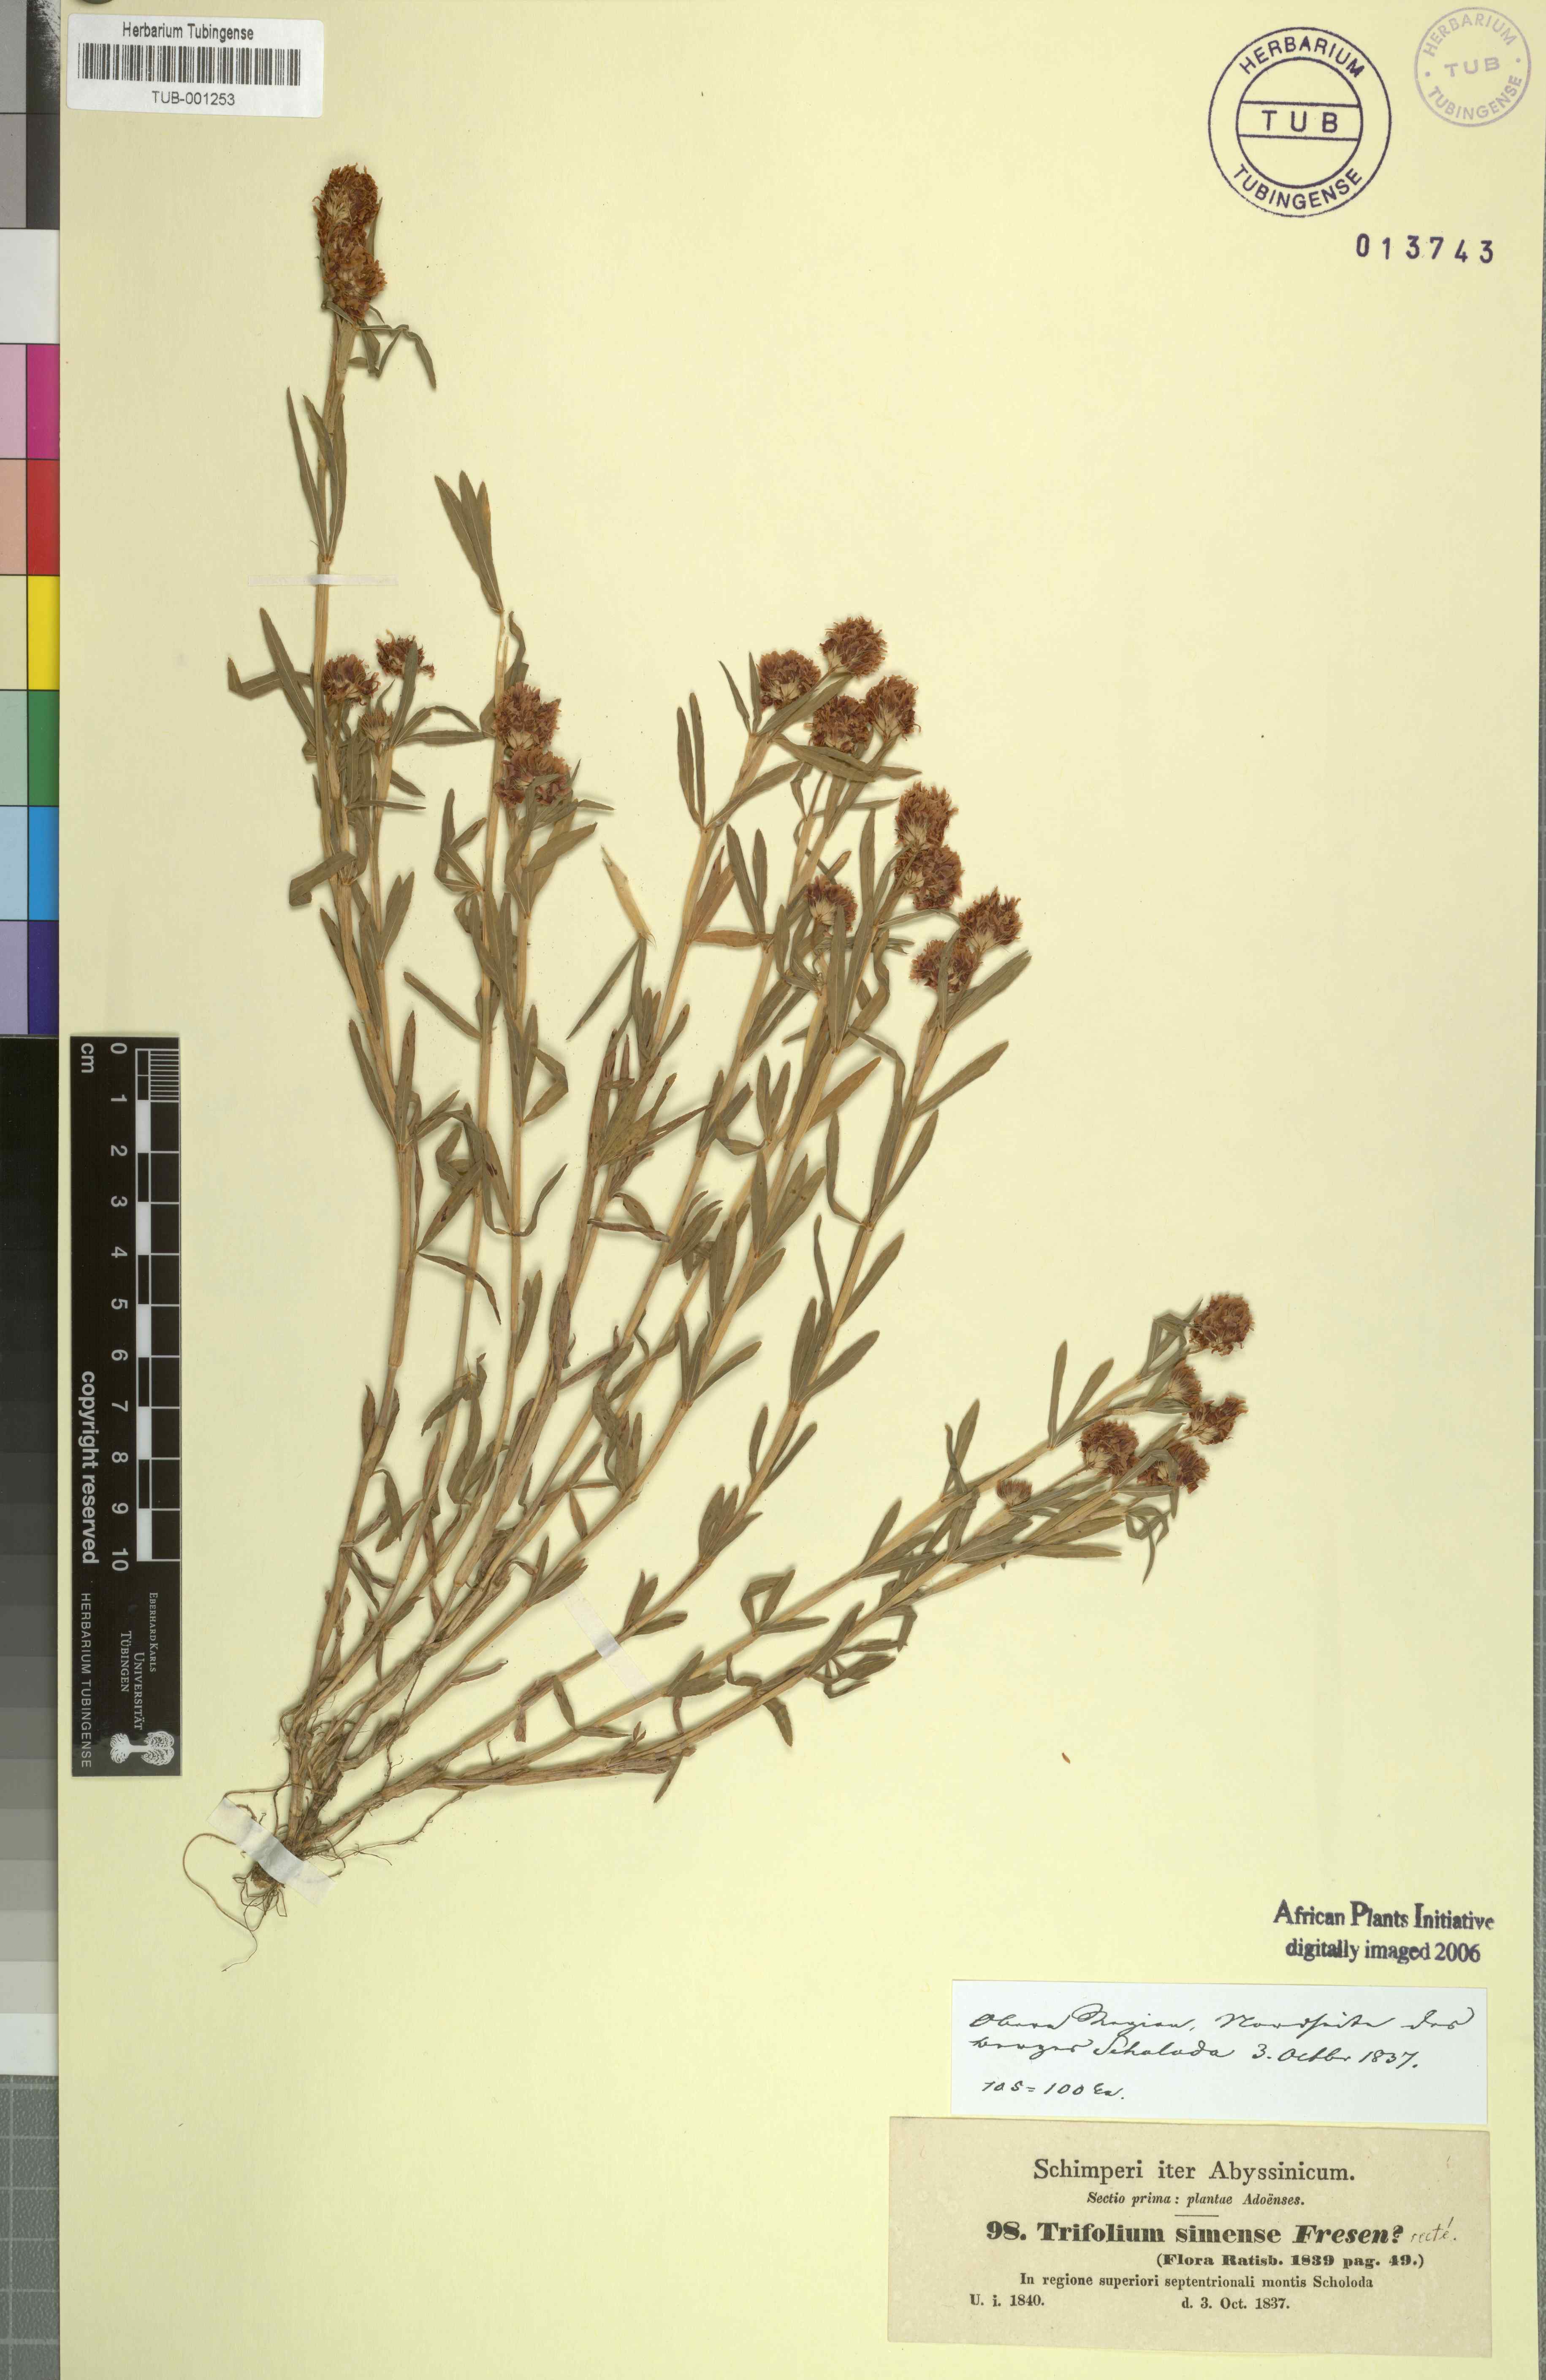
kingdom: Plantae
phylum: Tracheophyta
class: Magnoliopsida
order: Fabales
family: Fabaceae
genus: Trifolium
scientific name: Trifolium simense
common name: Simen clover
